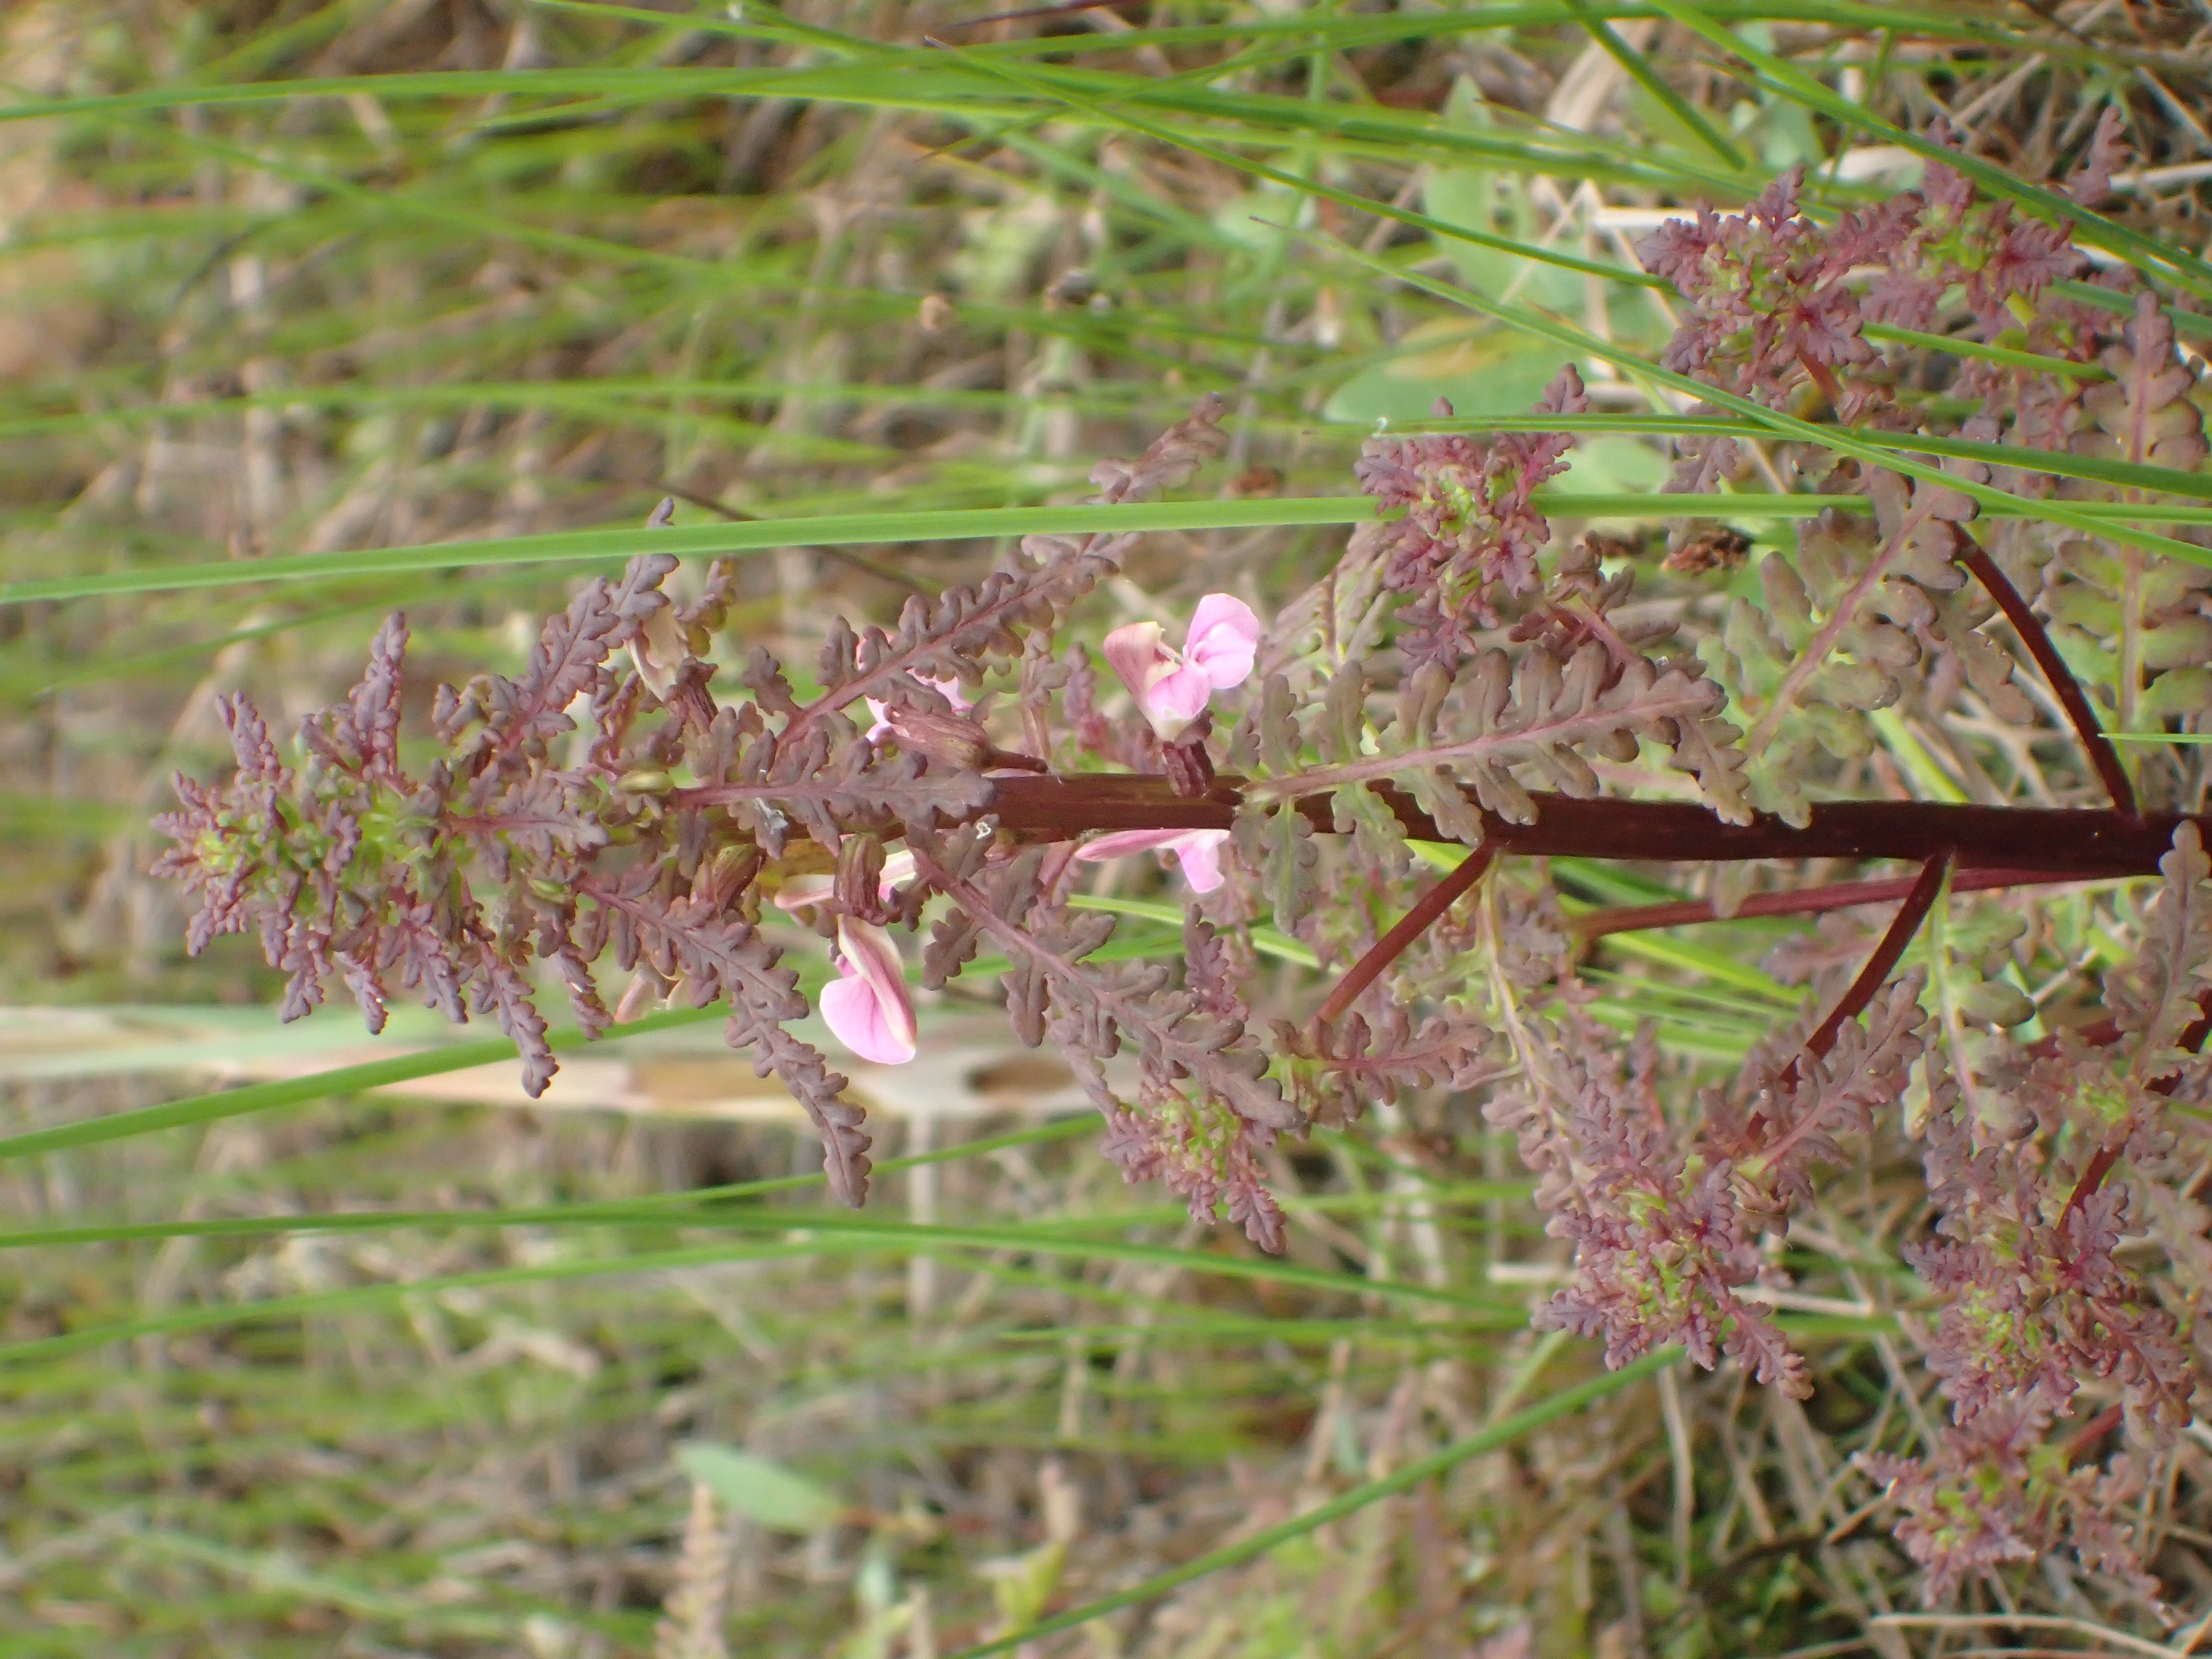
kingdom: Plantae
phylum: Tracheophyta
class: Magnoliopsida
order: Lamiales
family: Orobanchaceae
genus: Pedicularis
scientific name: Pedicularis palustris
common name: Marsh lousewort
